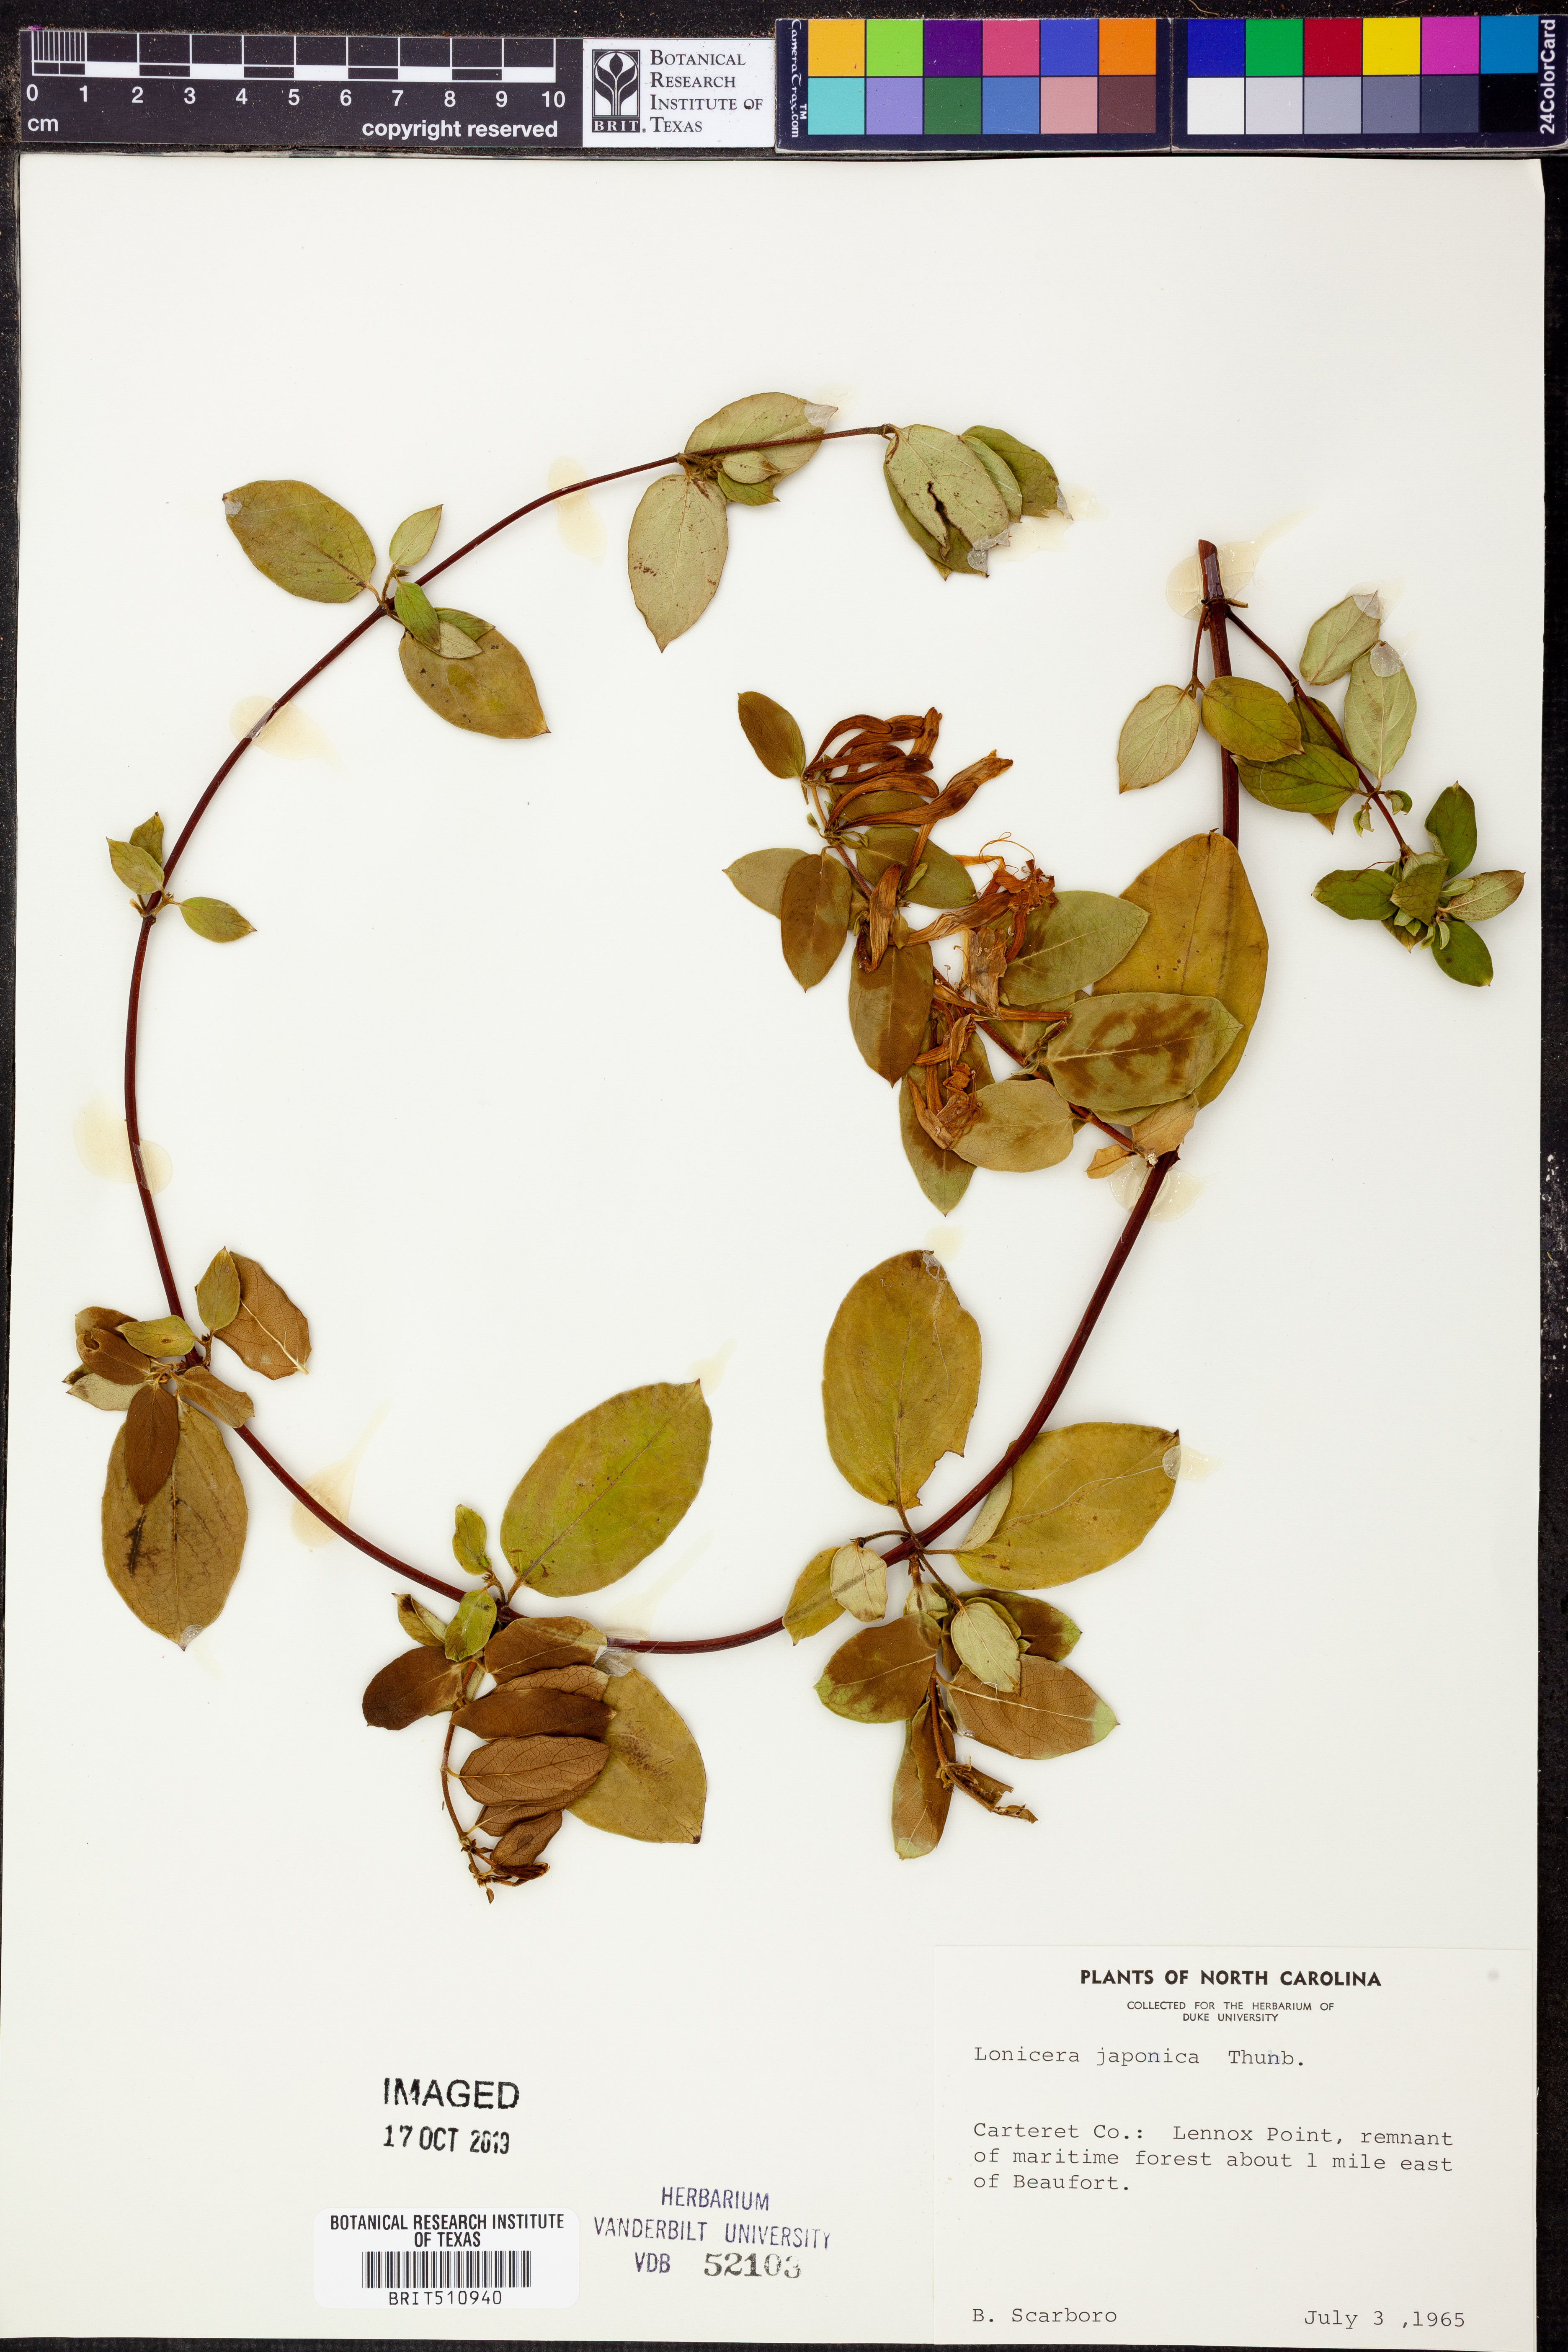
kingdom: Plantae
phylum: Tracheophyta
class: Magnoliopsida
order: Dipsacales
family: Caprifoliaceae
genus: Lonicera
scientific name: Lonicera japonica
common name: Japanese honeysuckle
